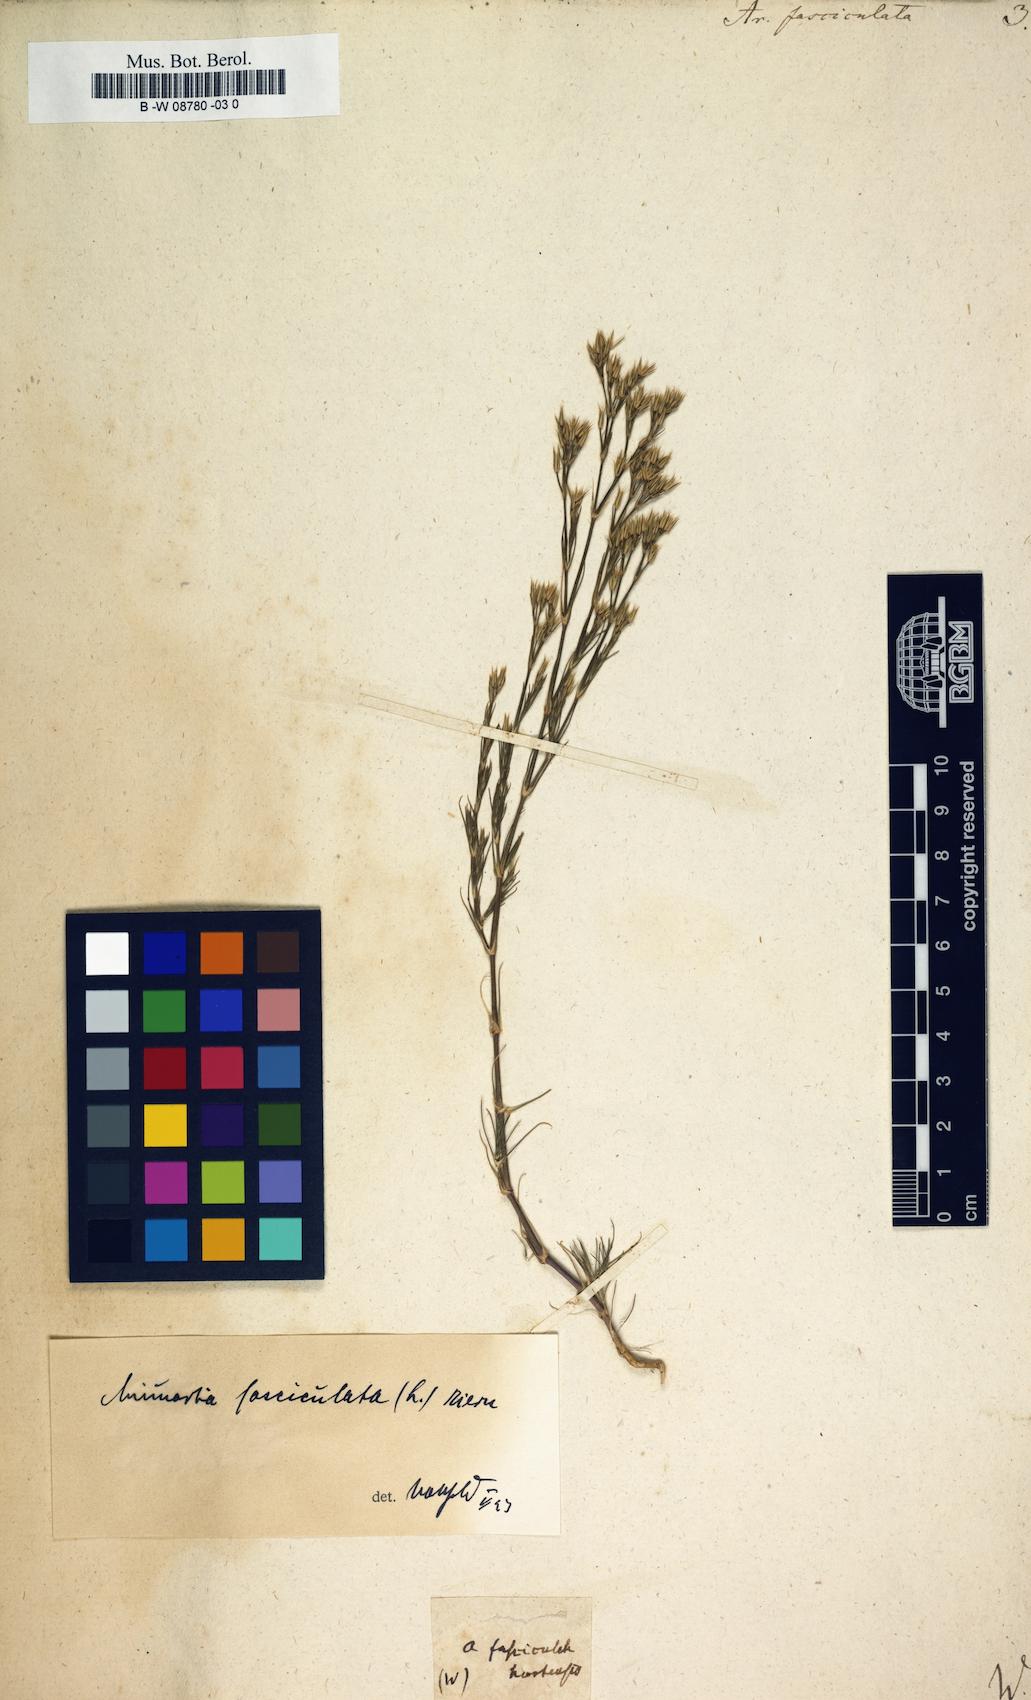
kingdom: Plantae
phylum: Tracheophyta
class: Magnoliopsida
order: Caryophyllales
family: Caryophyllaceae
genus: Minuartia
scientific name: Minuartia mucronata
